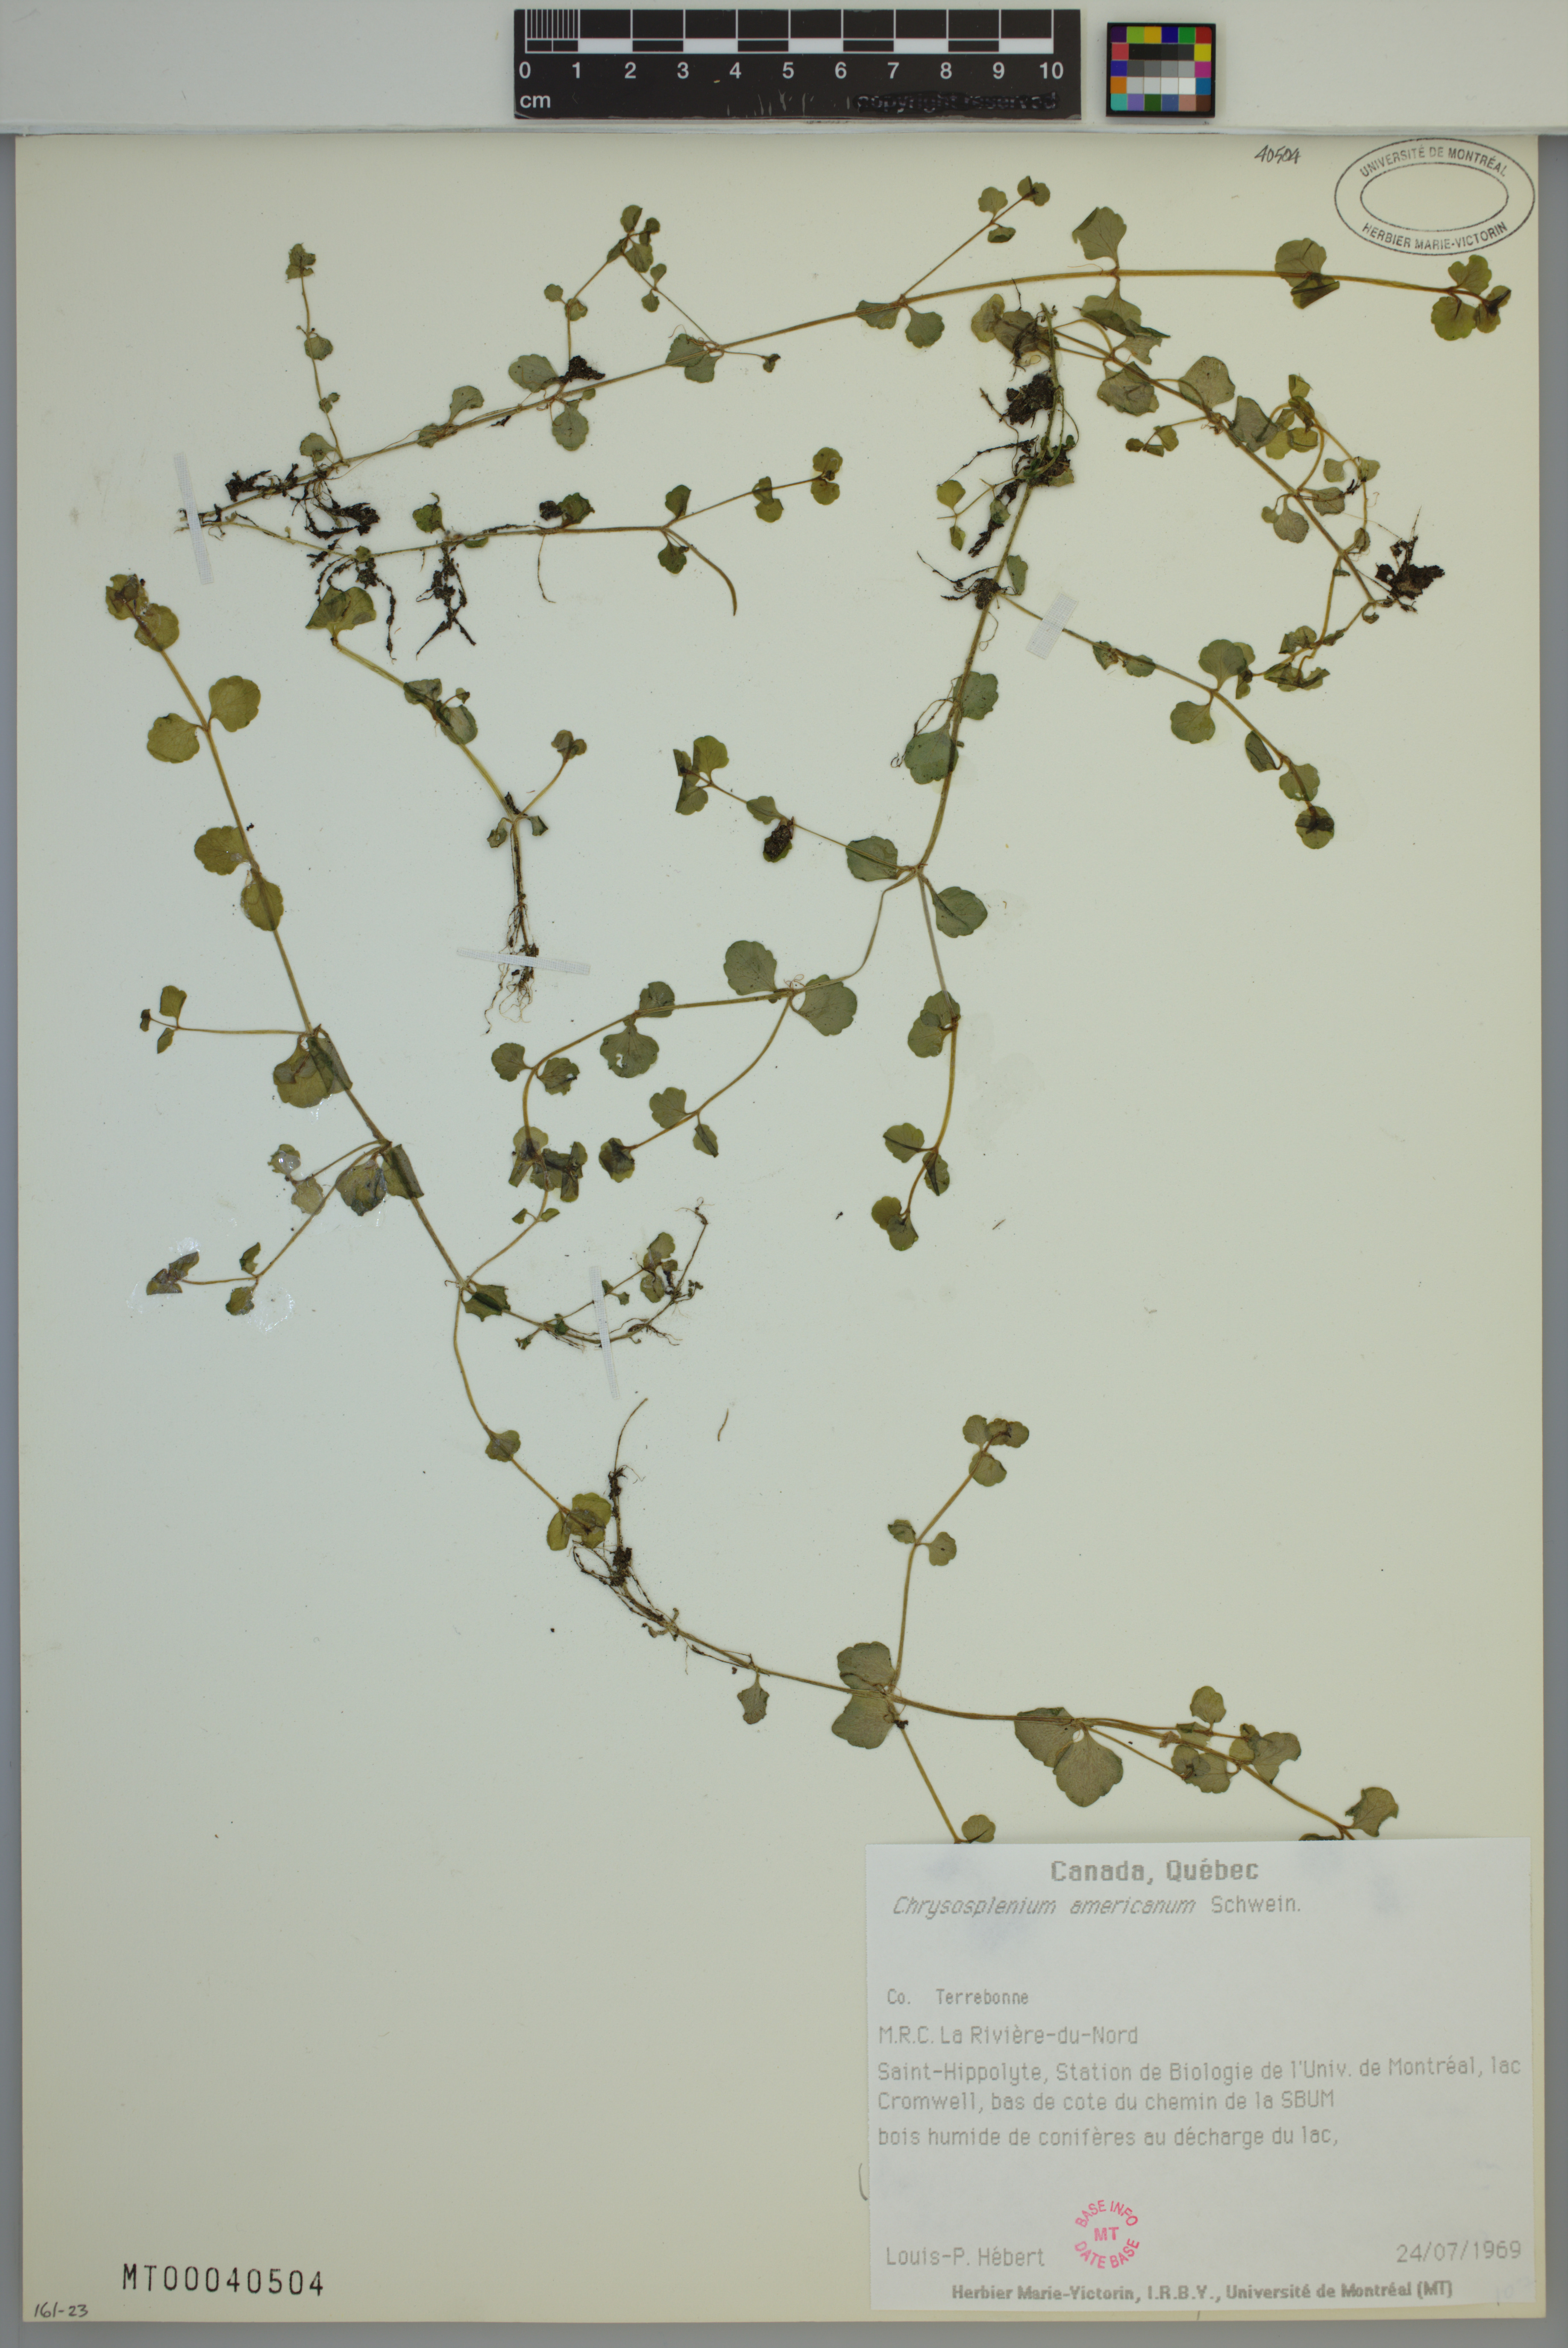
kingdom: Plantae
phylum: Tracheophyta
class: Magnoliopsida
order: Saxifragales
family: Saxifragaceae
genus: Chrysosplenium
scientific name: Chrysosplenium americanum
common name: American golden-saxifrage
